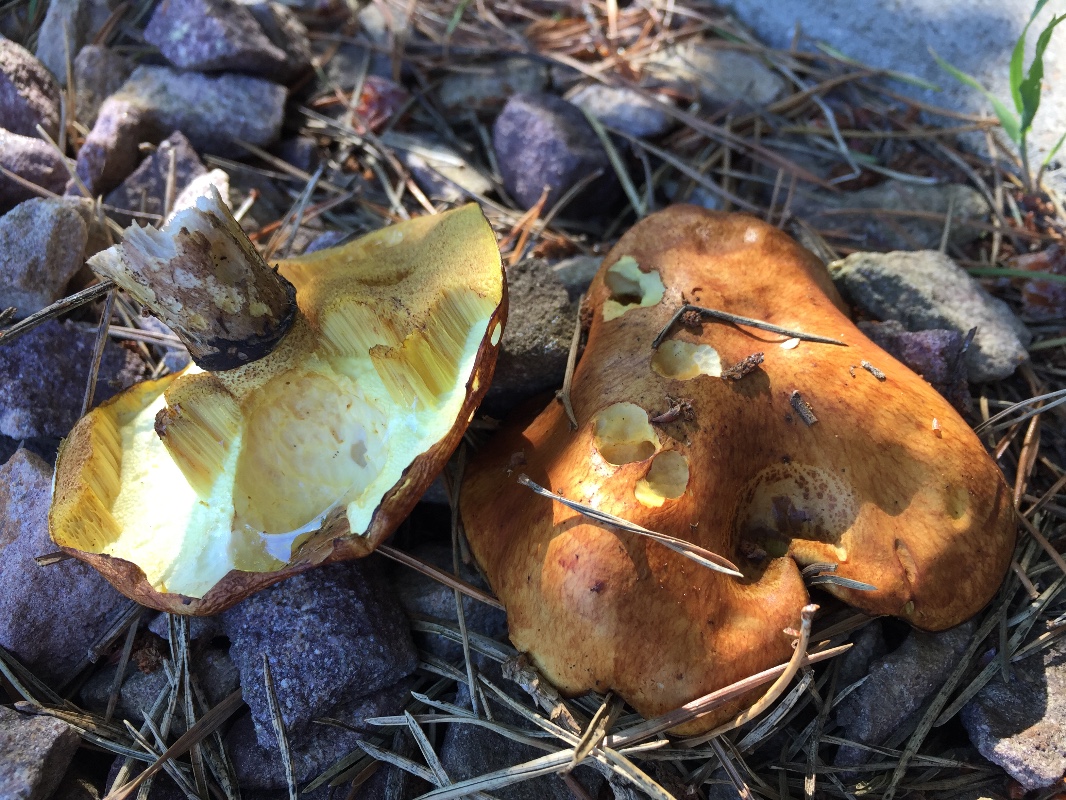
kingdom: Fungi
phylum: Basidiomycota
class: Agaricomycetes
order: Boletales
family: Suillaceae
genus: Suillus
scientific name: Suillus luteus
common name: brungul slimrørhat
